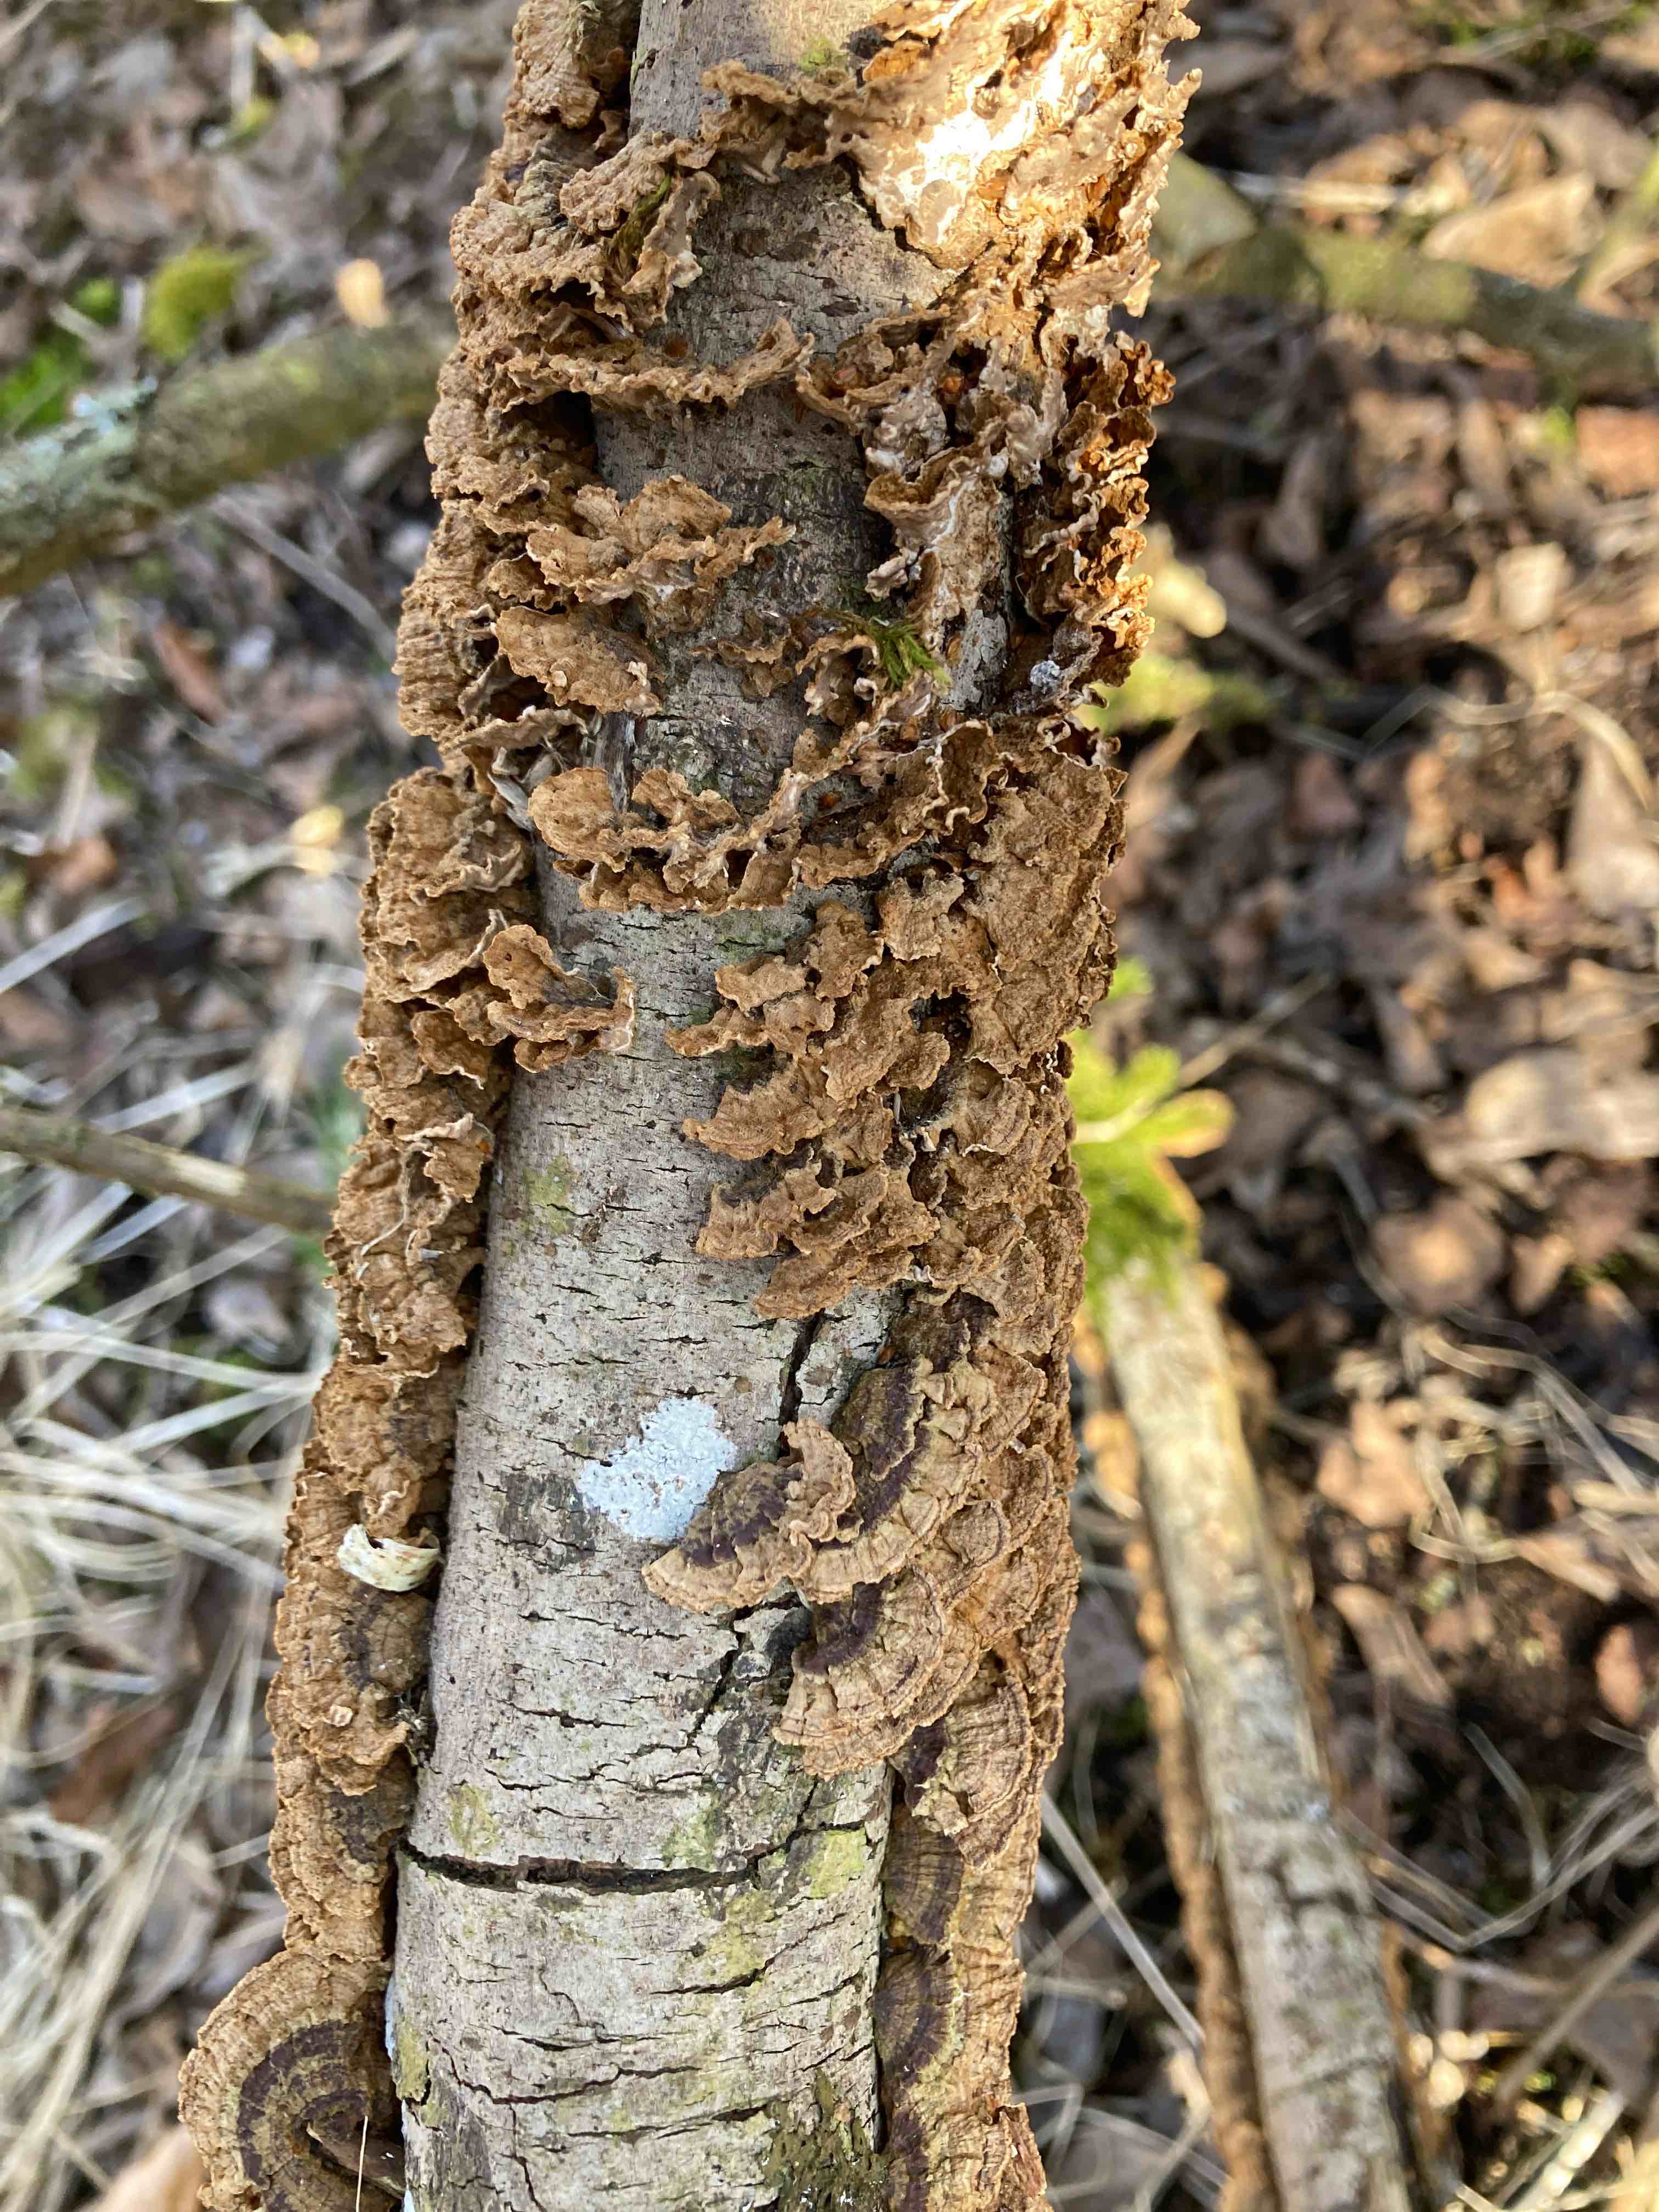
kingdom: Fungi
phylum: Basidiomycota
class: Agaricomycetes
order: Hymenochaetales
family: Hymenochaetaceae
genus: Hydnoporia
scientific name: Hydnoporia tabacina
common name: tobaksbrun ruslædersvamp
